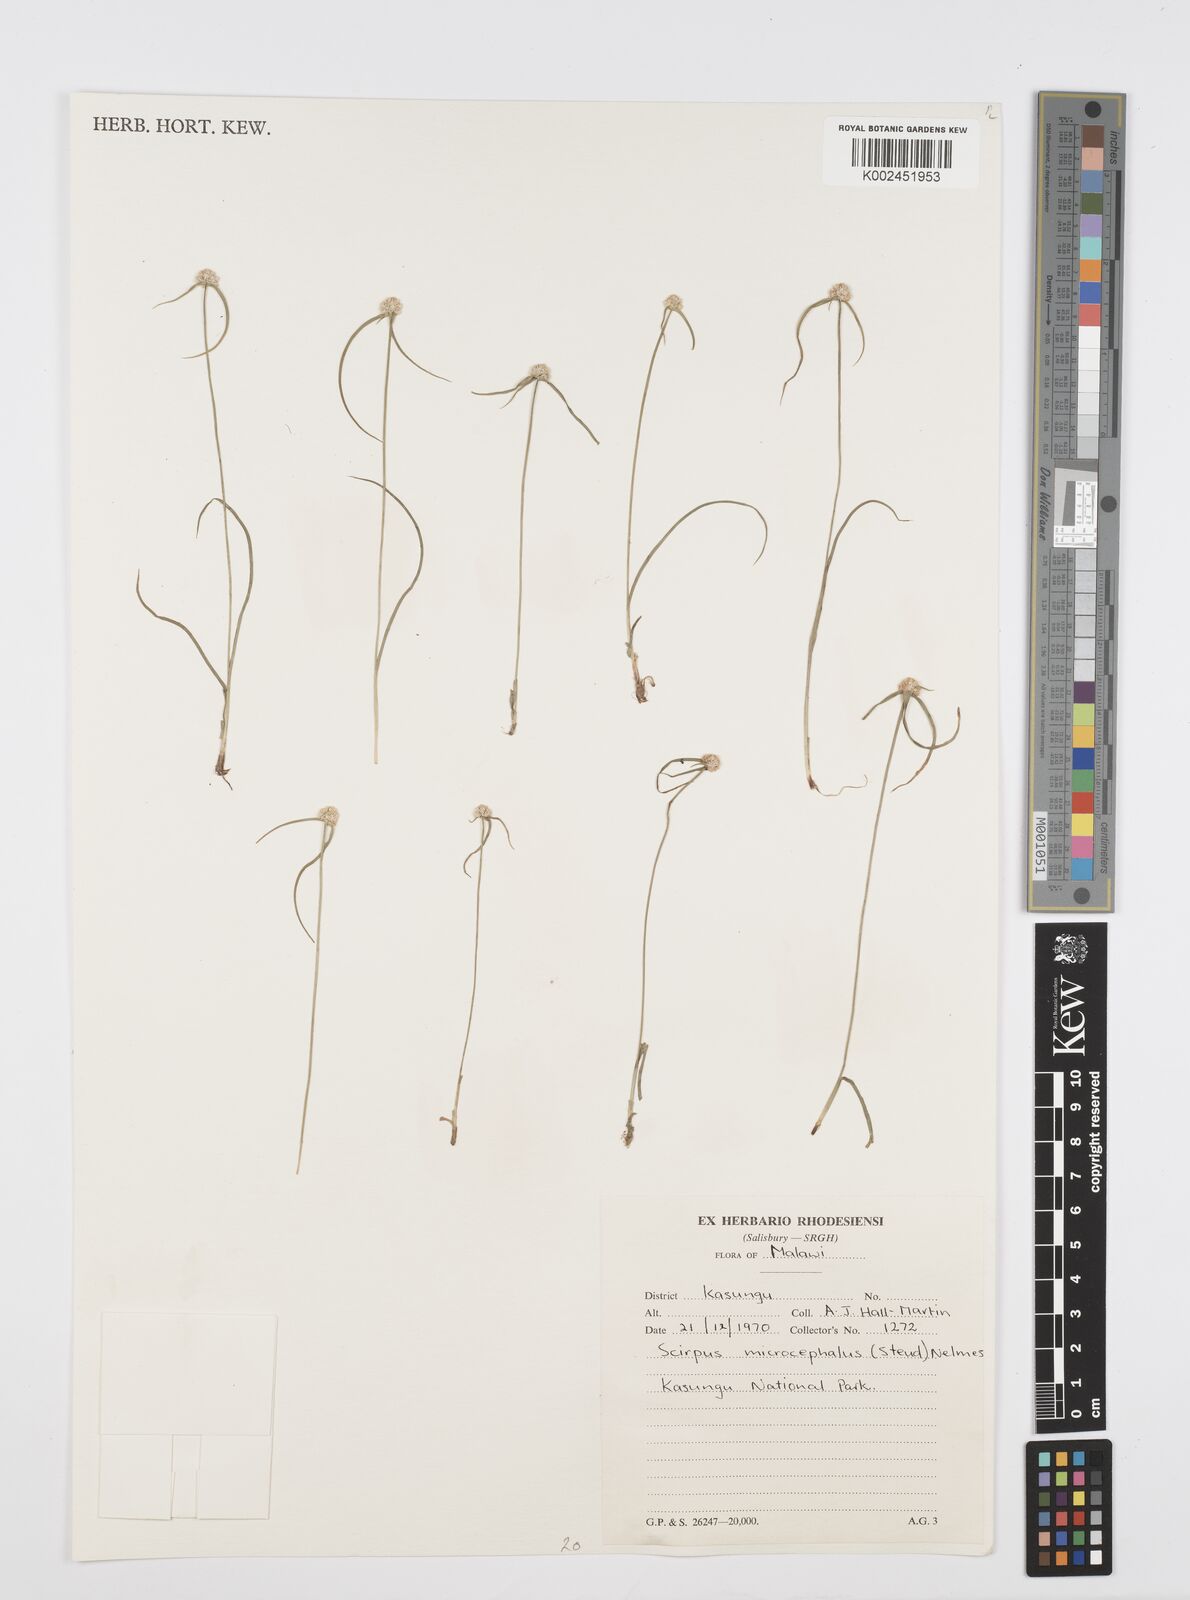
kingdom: Plantae
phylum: Tracheophyta
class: Liliopsida
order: Poales
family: Cyperaceae
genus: Cyperus
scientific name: Cyperus microcephalus
